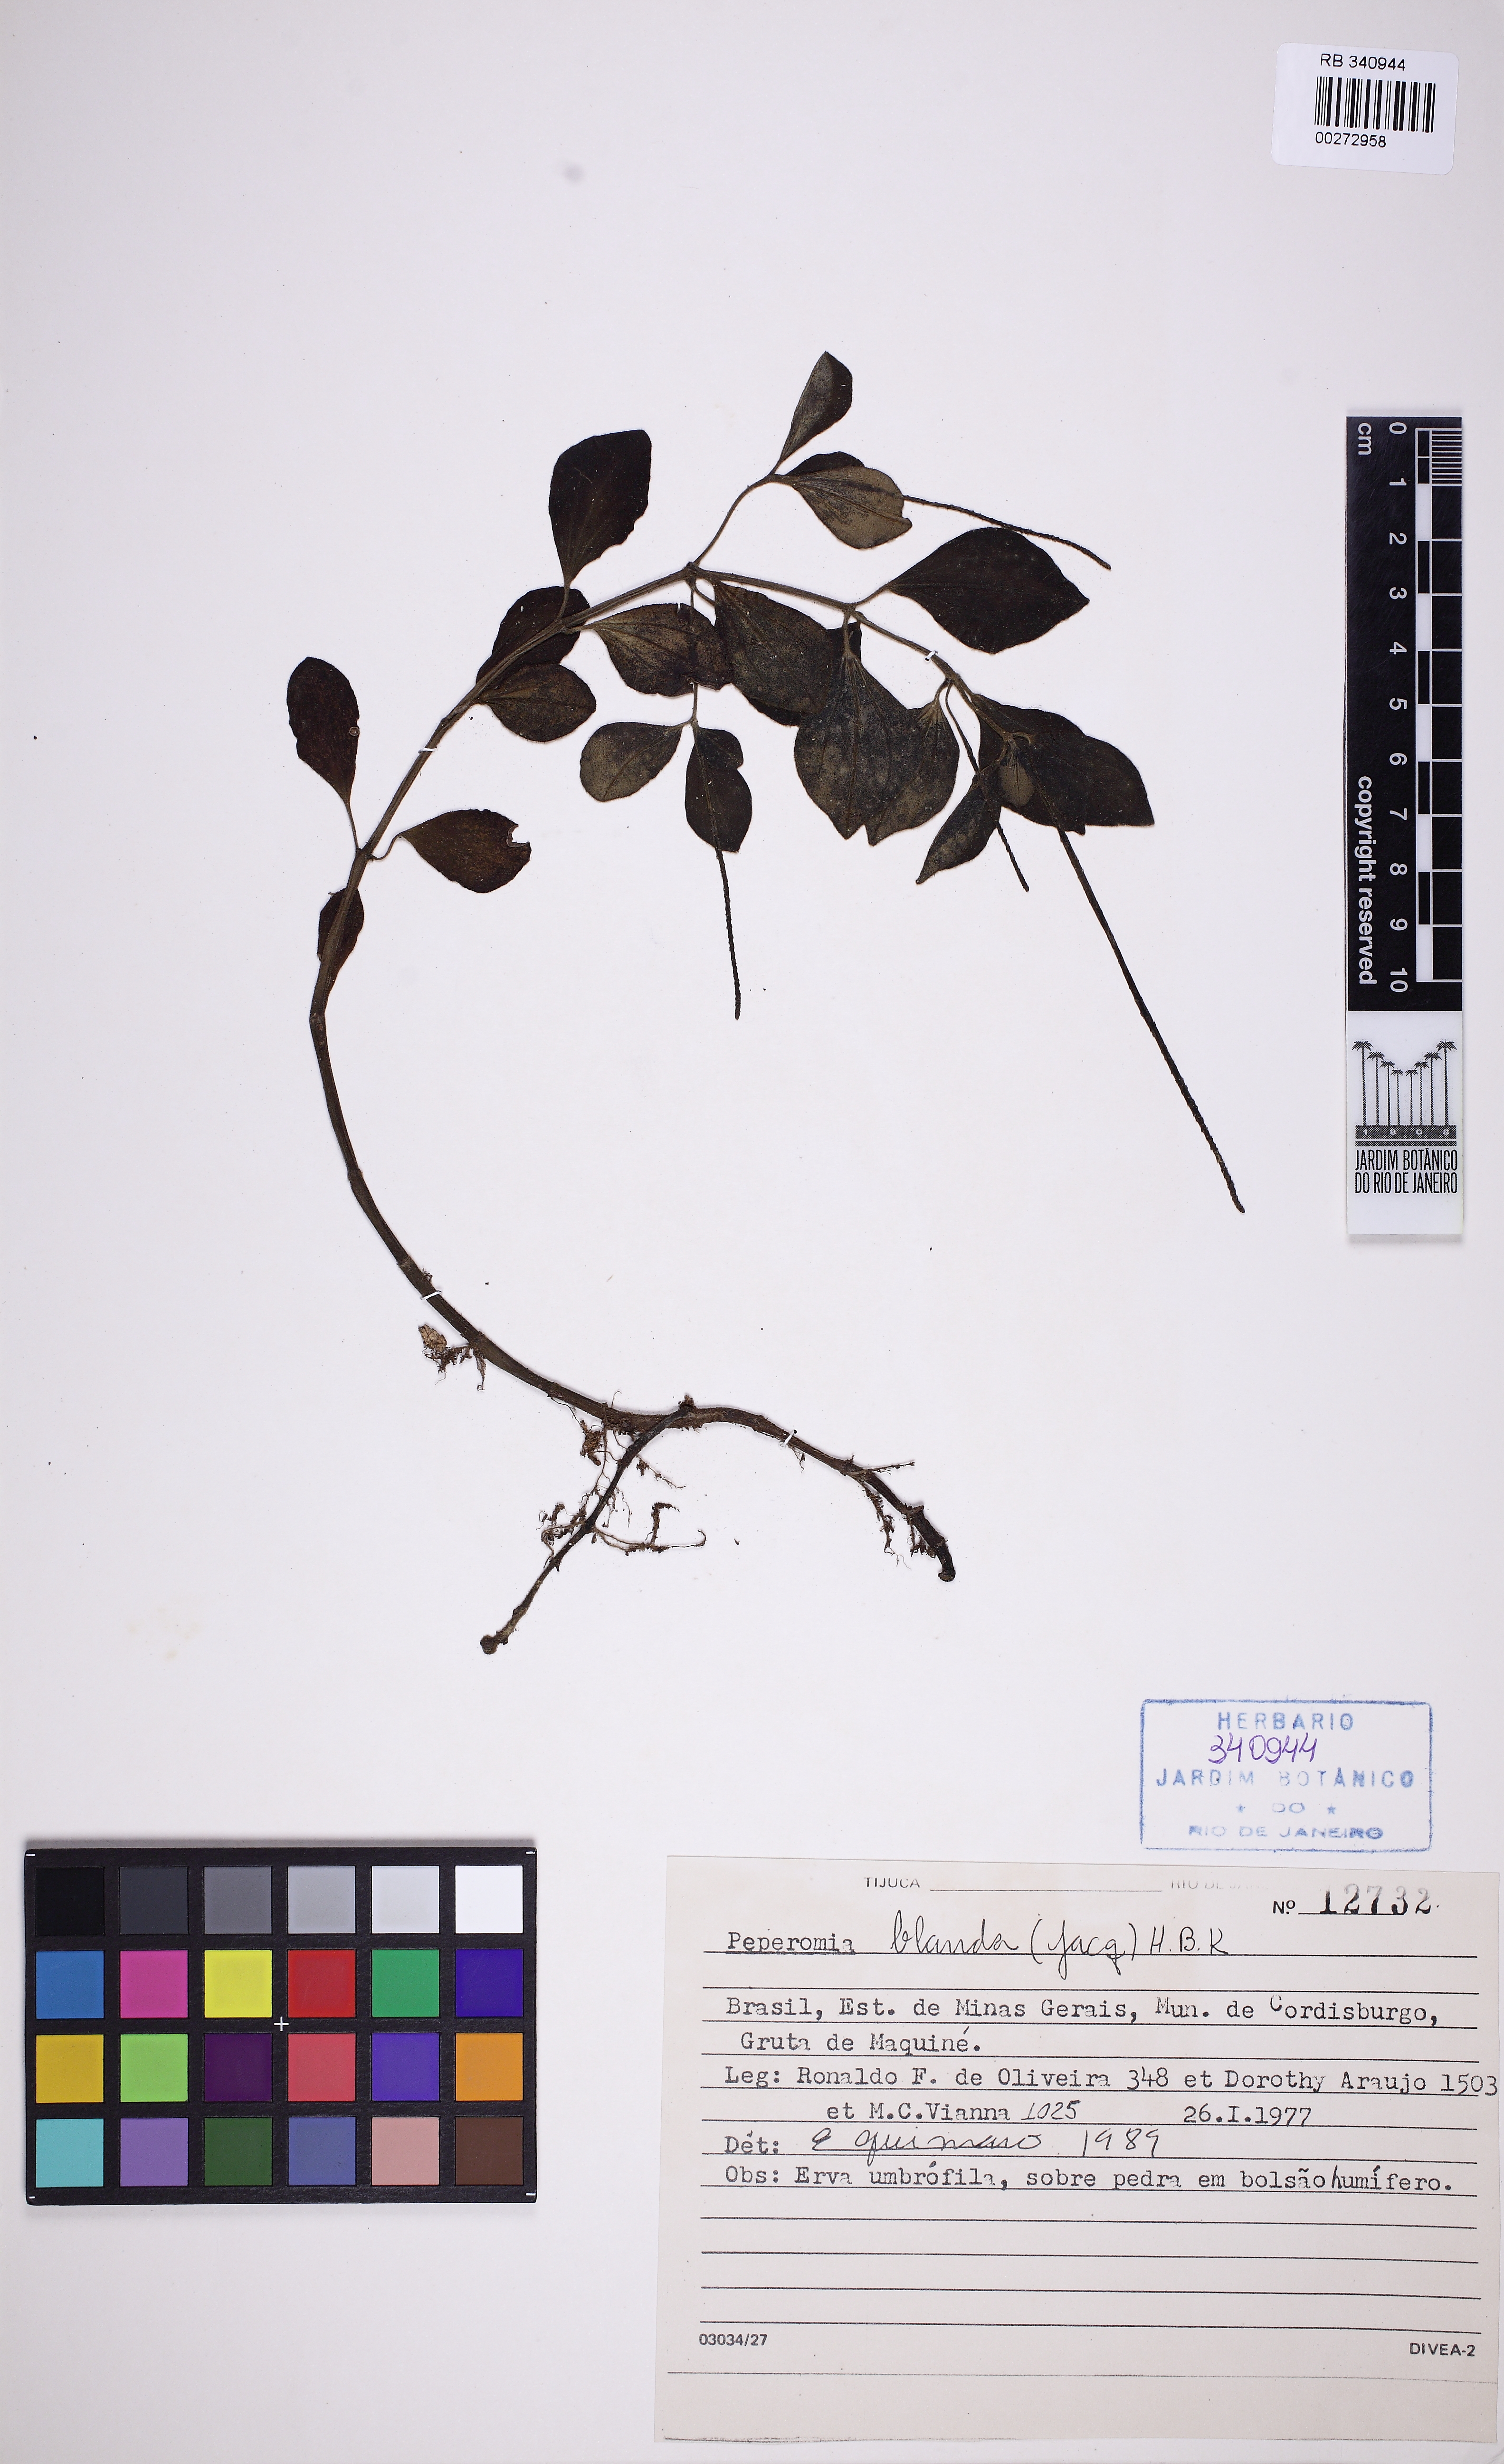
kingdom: Plantae
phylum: Tracheophyta
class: Magnoliopsida
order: Piperales
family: Piperaceae
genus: Peperomia
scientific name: Peperomia blanda
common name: Arid-land peperomia
